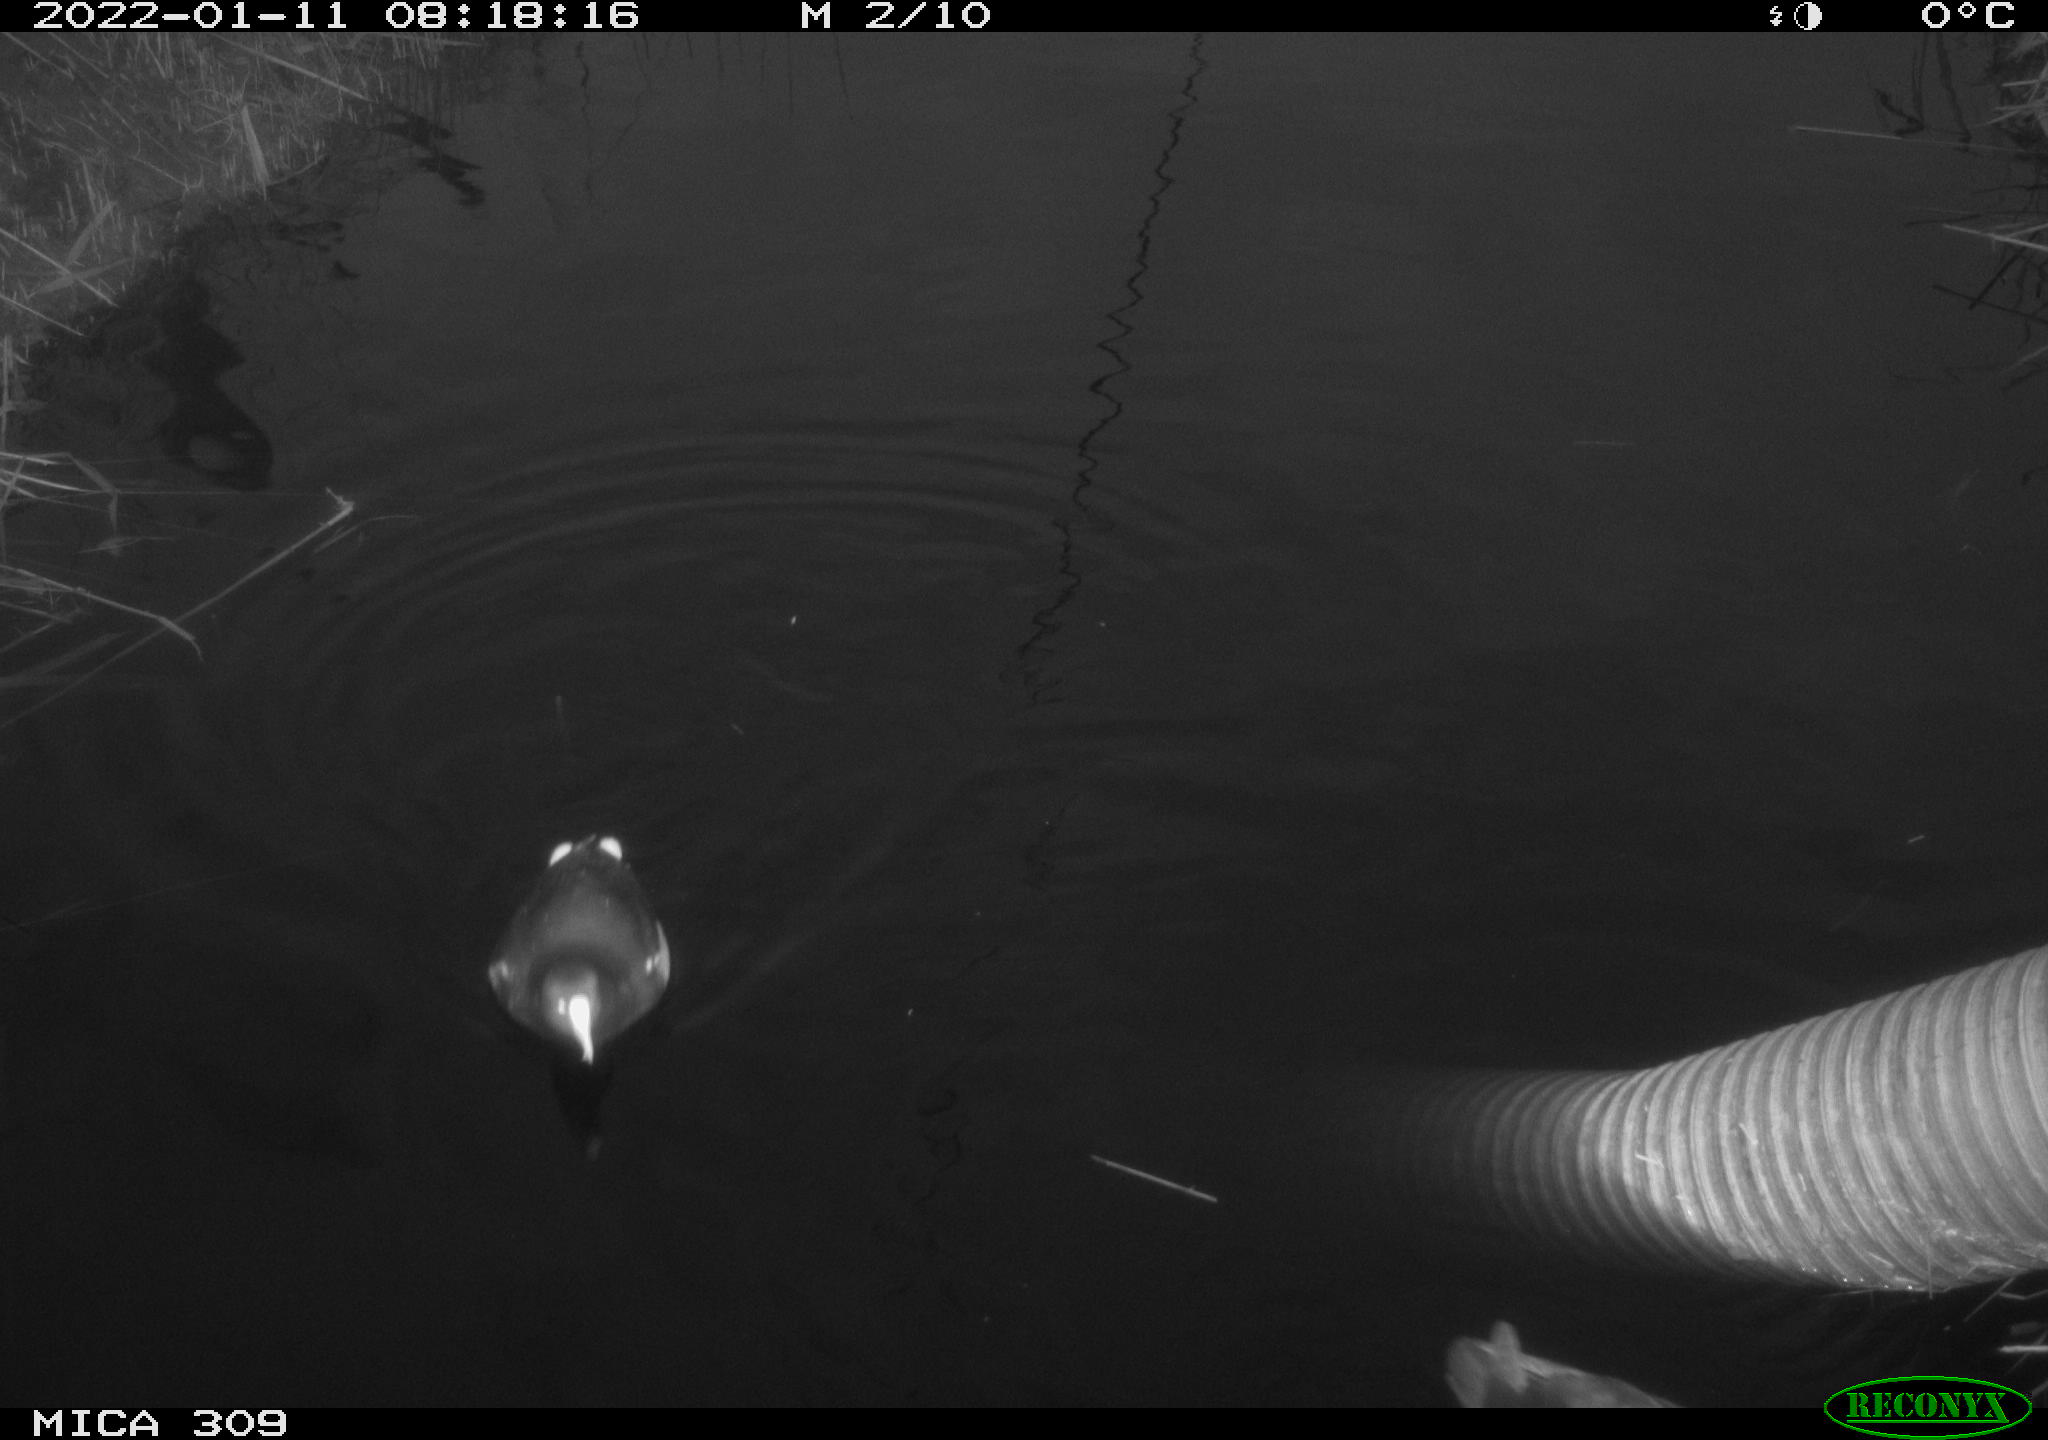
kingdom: Animalia
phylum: Chordata
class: Aves
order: Gruiformes
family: Rallidae
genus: Fulica
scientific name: Fulica atra
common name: Eurasian coot
